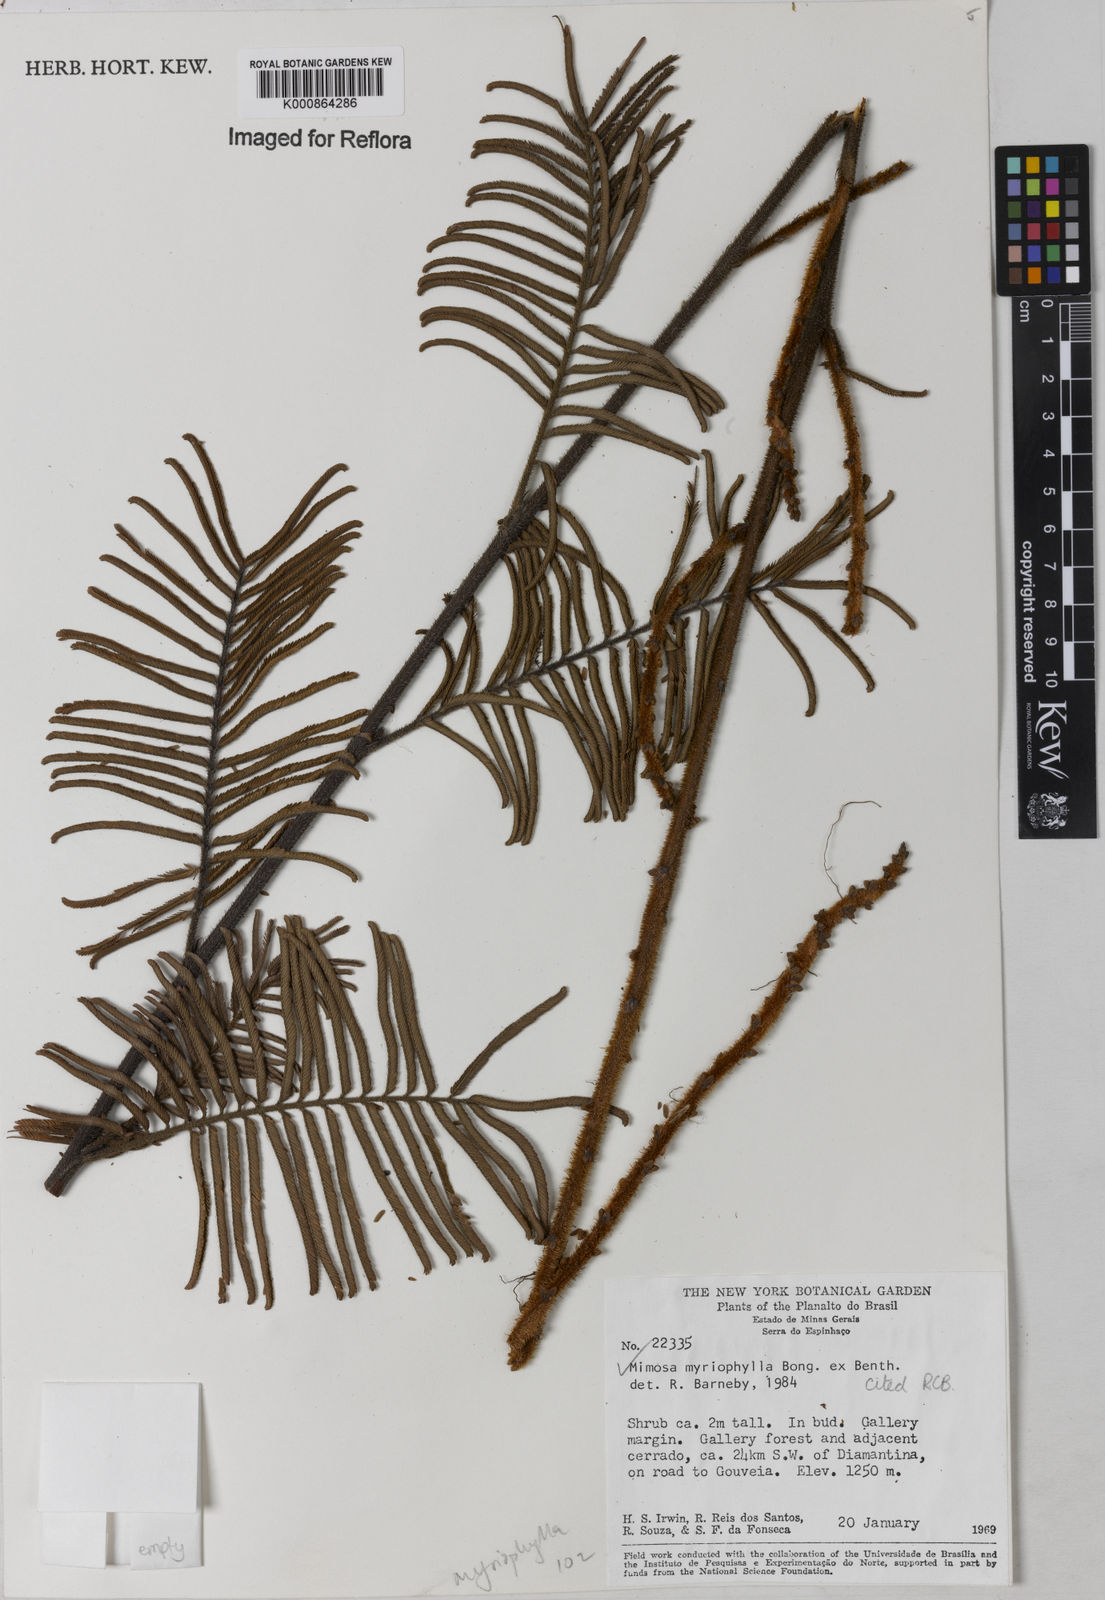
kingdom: Plantae
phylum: Tracheophyta
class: Magnoliopsida
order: Fabales
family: Fabaceae
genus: Mimosa
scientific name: Mimosa
